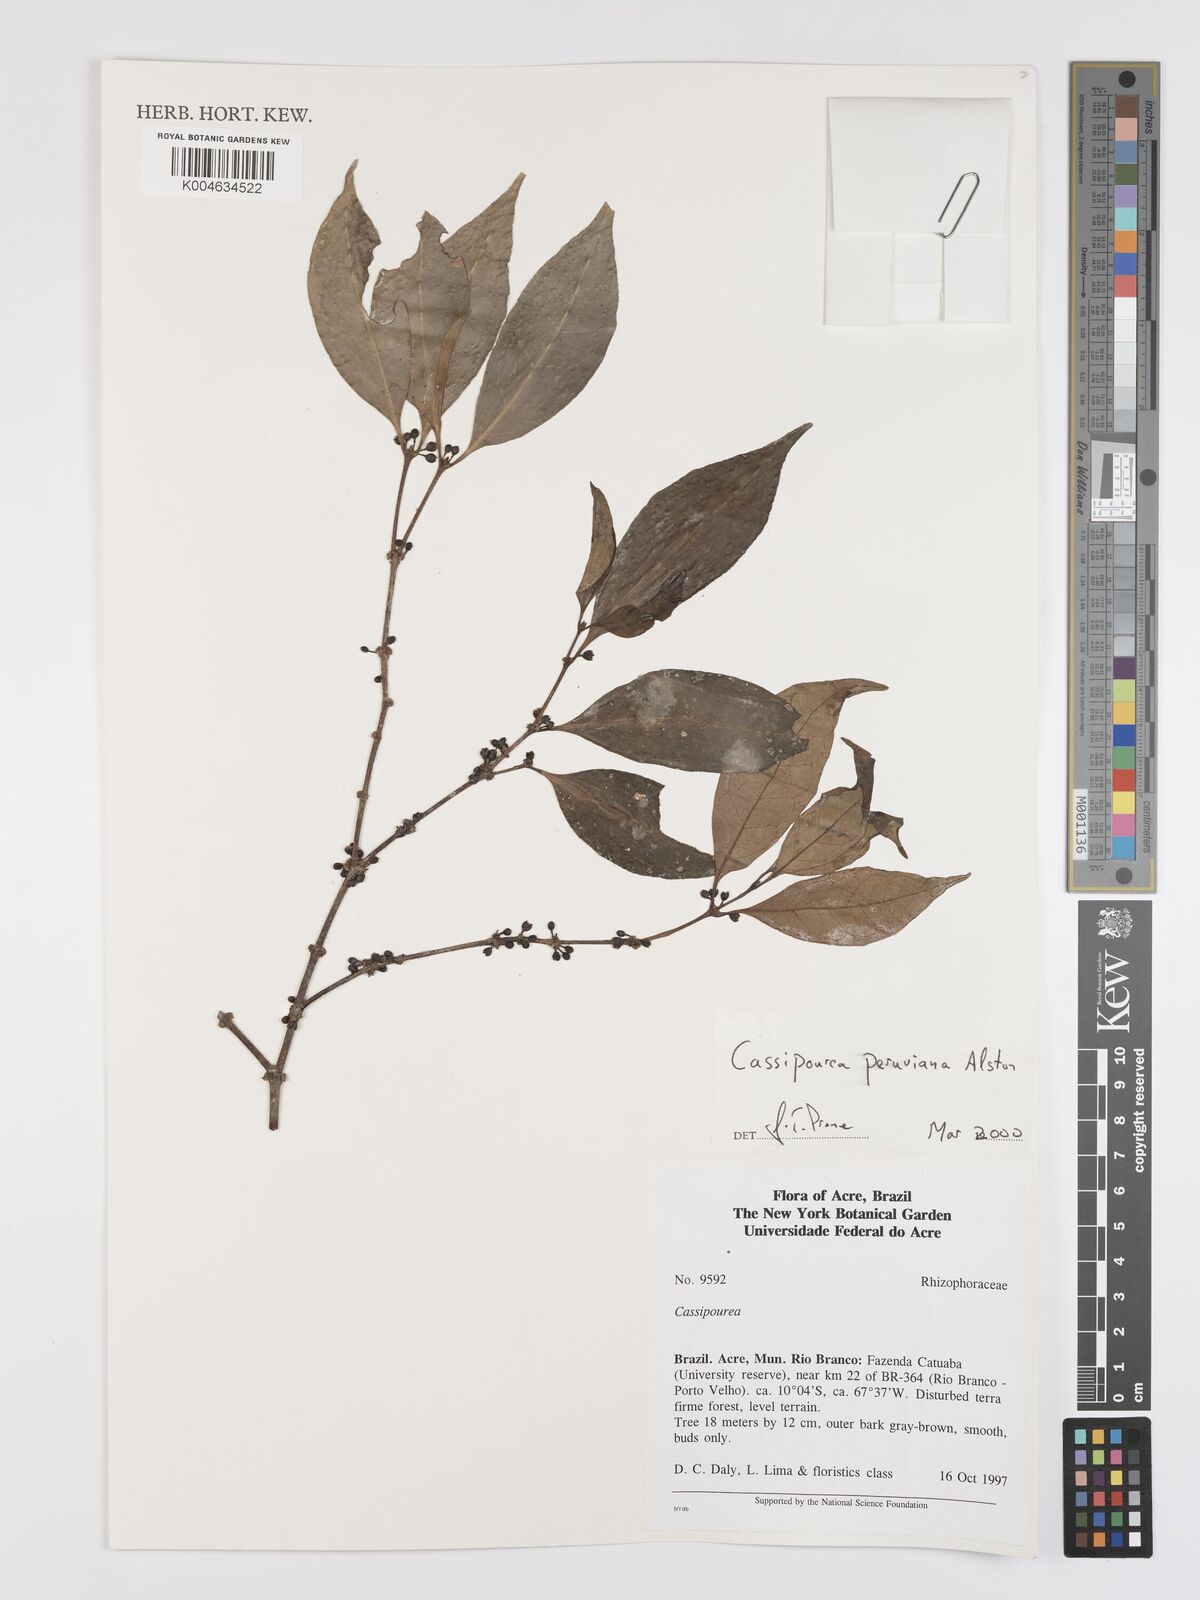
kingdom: Plantae
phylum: Tracheophyta
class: Magnoliopsida
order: Malpighiales
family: Rhizophoraceae
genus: Cassipourea
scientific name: Cassipourea peruviana
